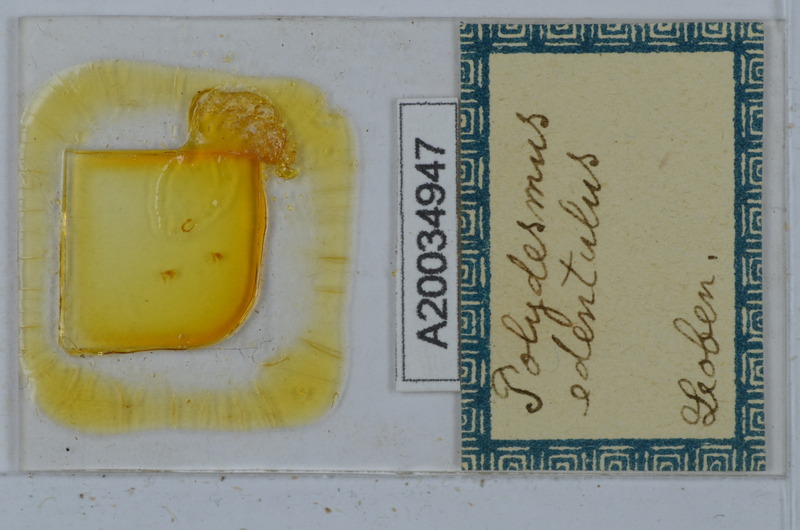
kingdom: Animalia
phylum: Arthropoda
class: Diplopoda
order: Polydesmida
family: Polydesmidae
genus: Polydesmus
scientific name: Polydesmus edentulus
